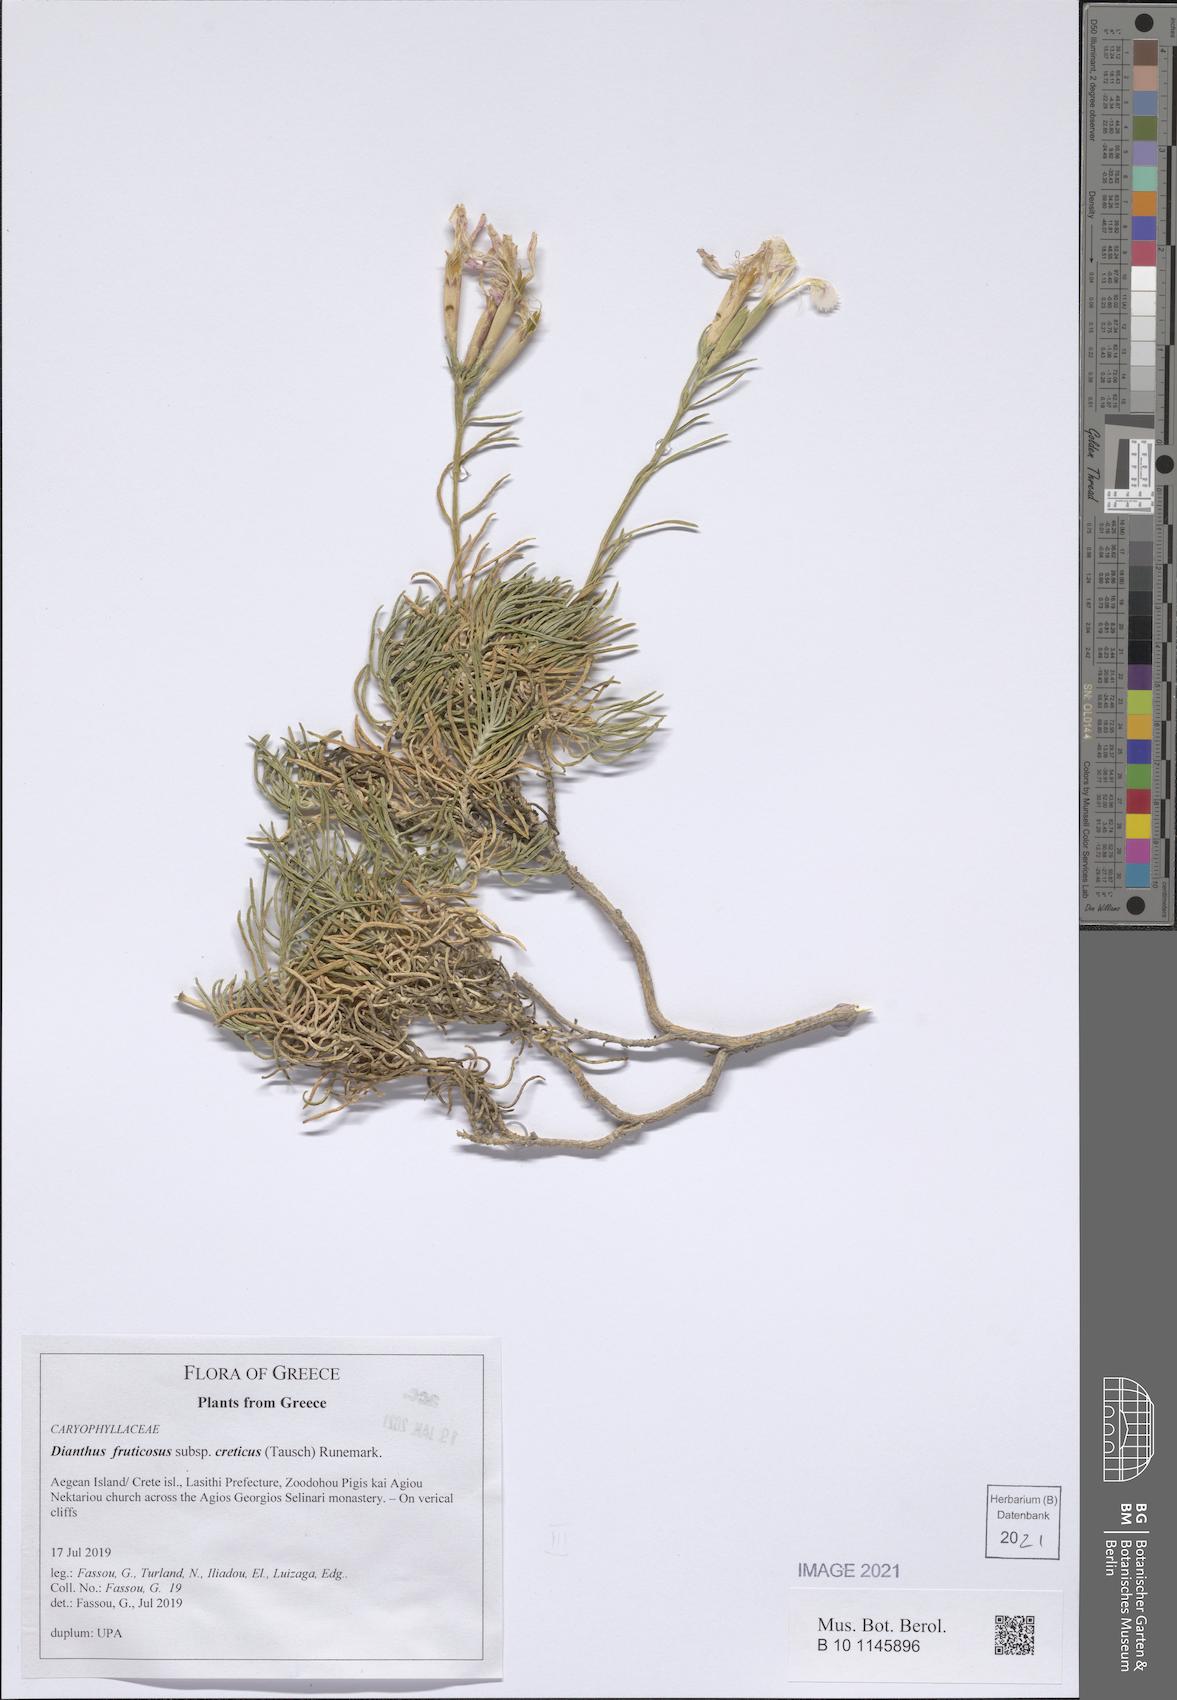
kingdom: Plantae
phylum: Tracheophyta
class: Magnoliopsida
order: Caryophyllales
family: Caryophyllaceae
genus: Dianthus
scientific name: Dianthus fruticosus
